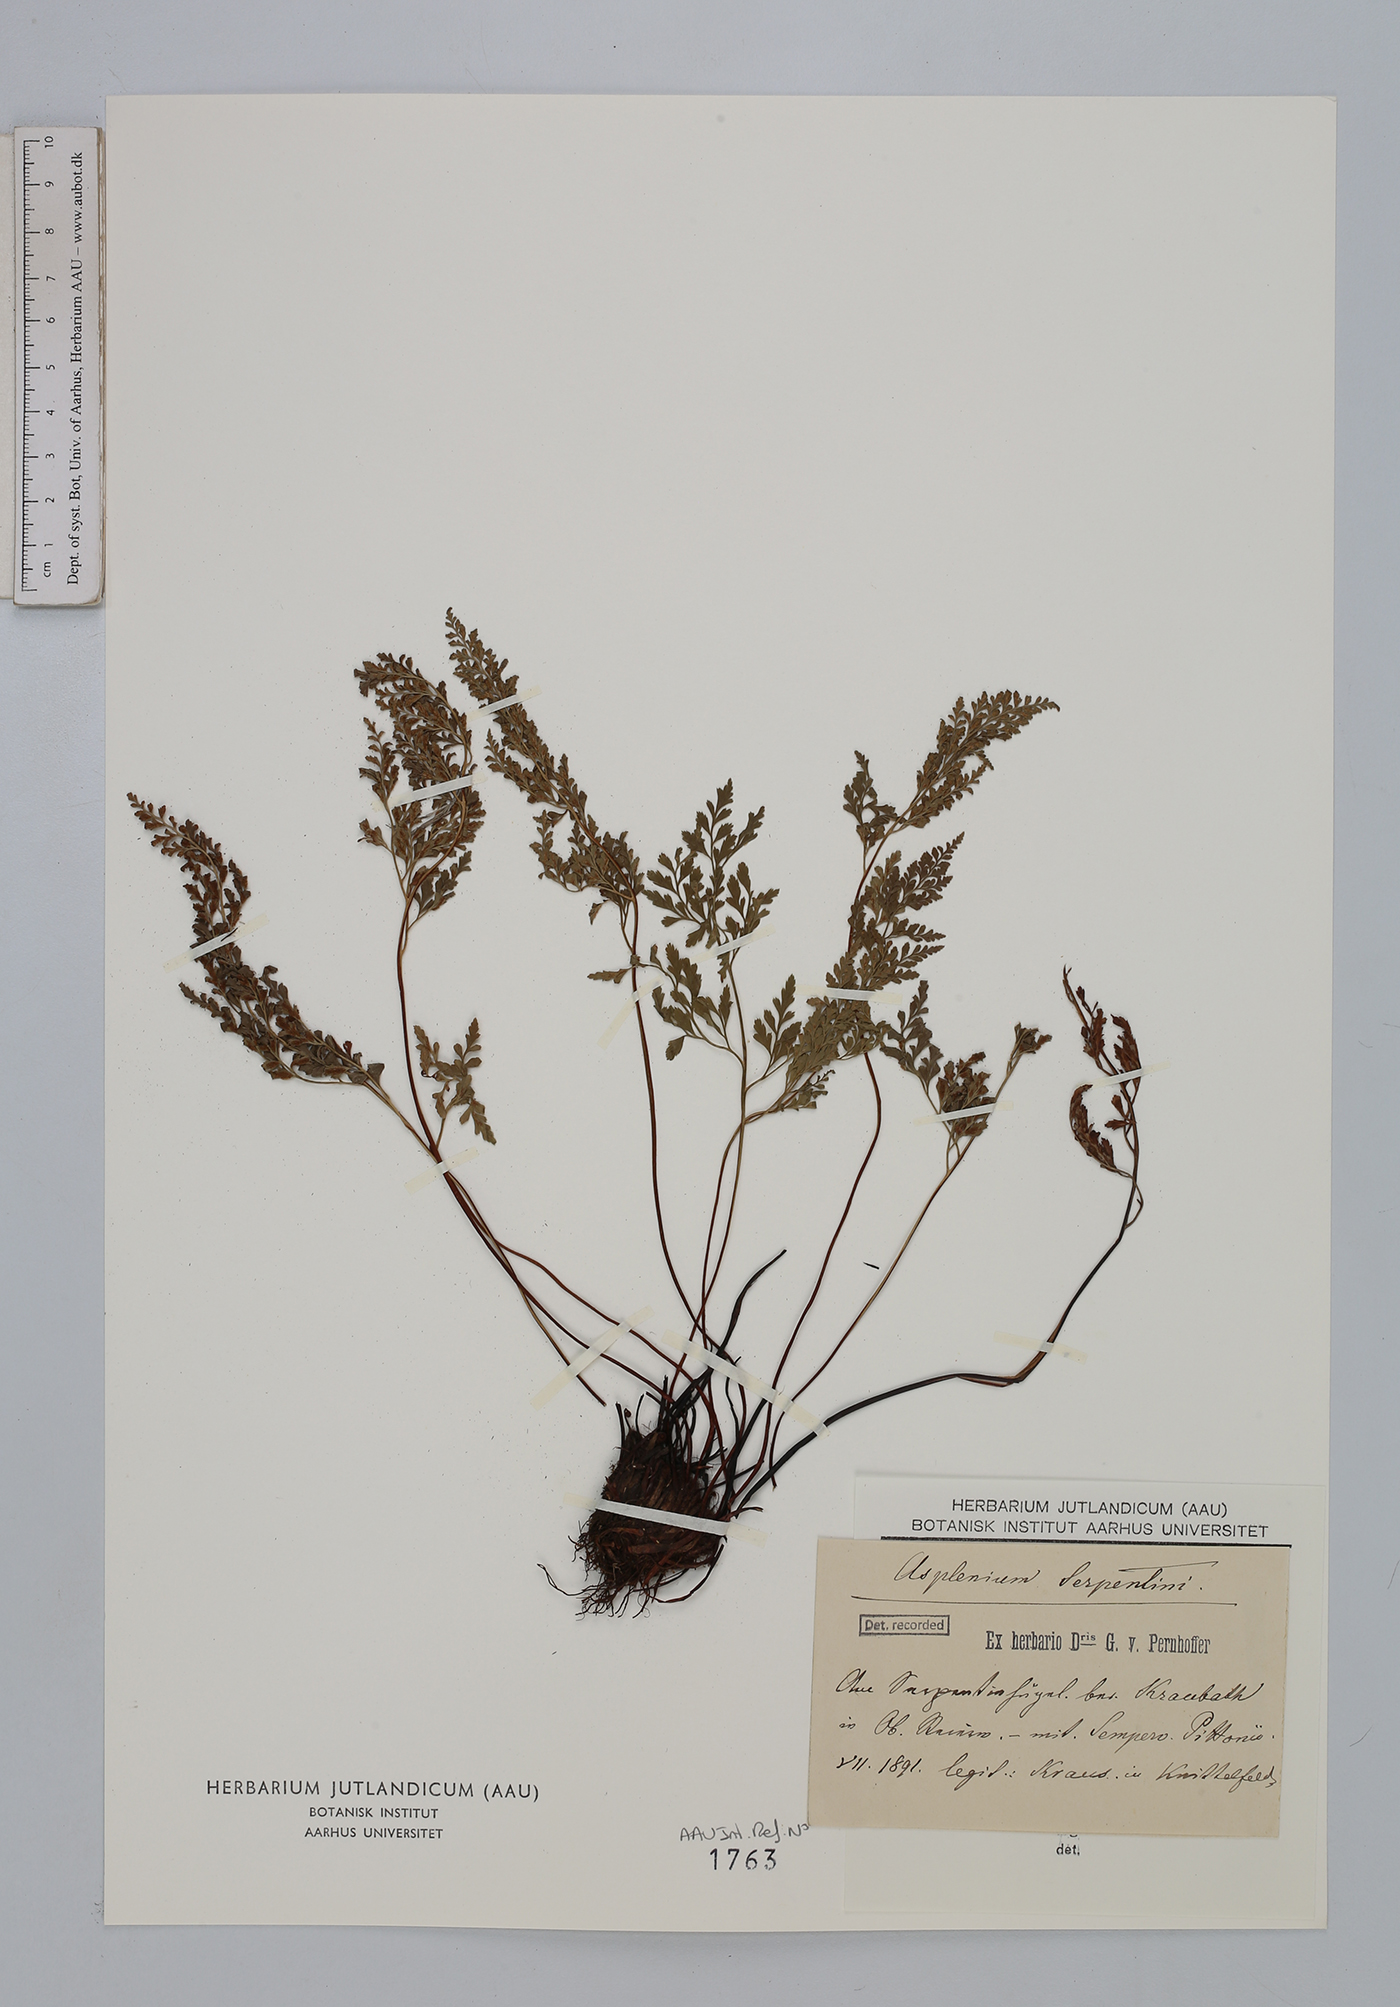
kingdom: Plantae
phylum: Tracheophyta
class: Polypodiopsida
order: Polypodiales
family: Aspleniaceae
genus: Asplenium
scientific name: Asplenium cuneifolium
